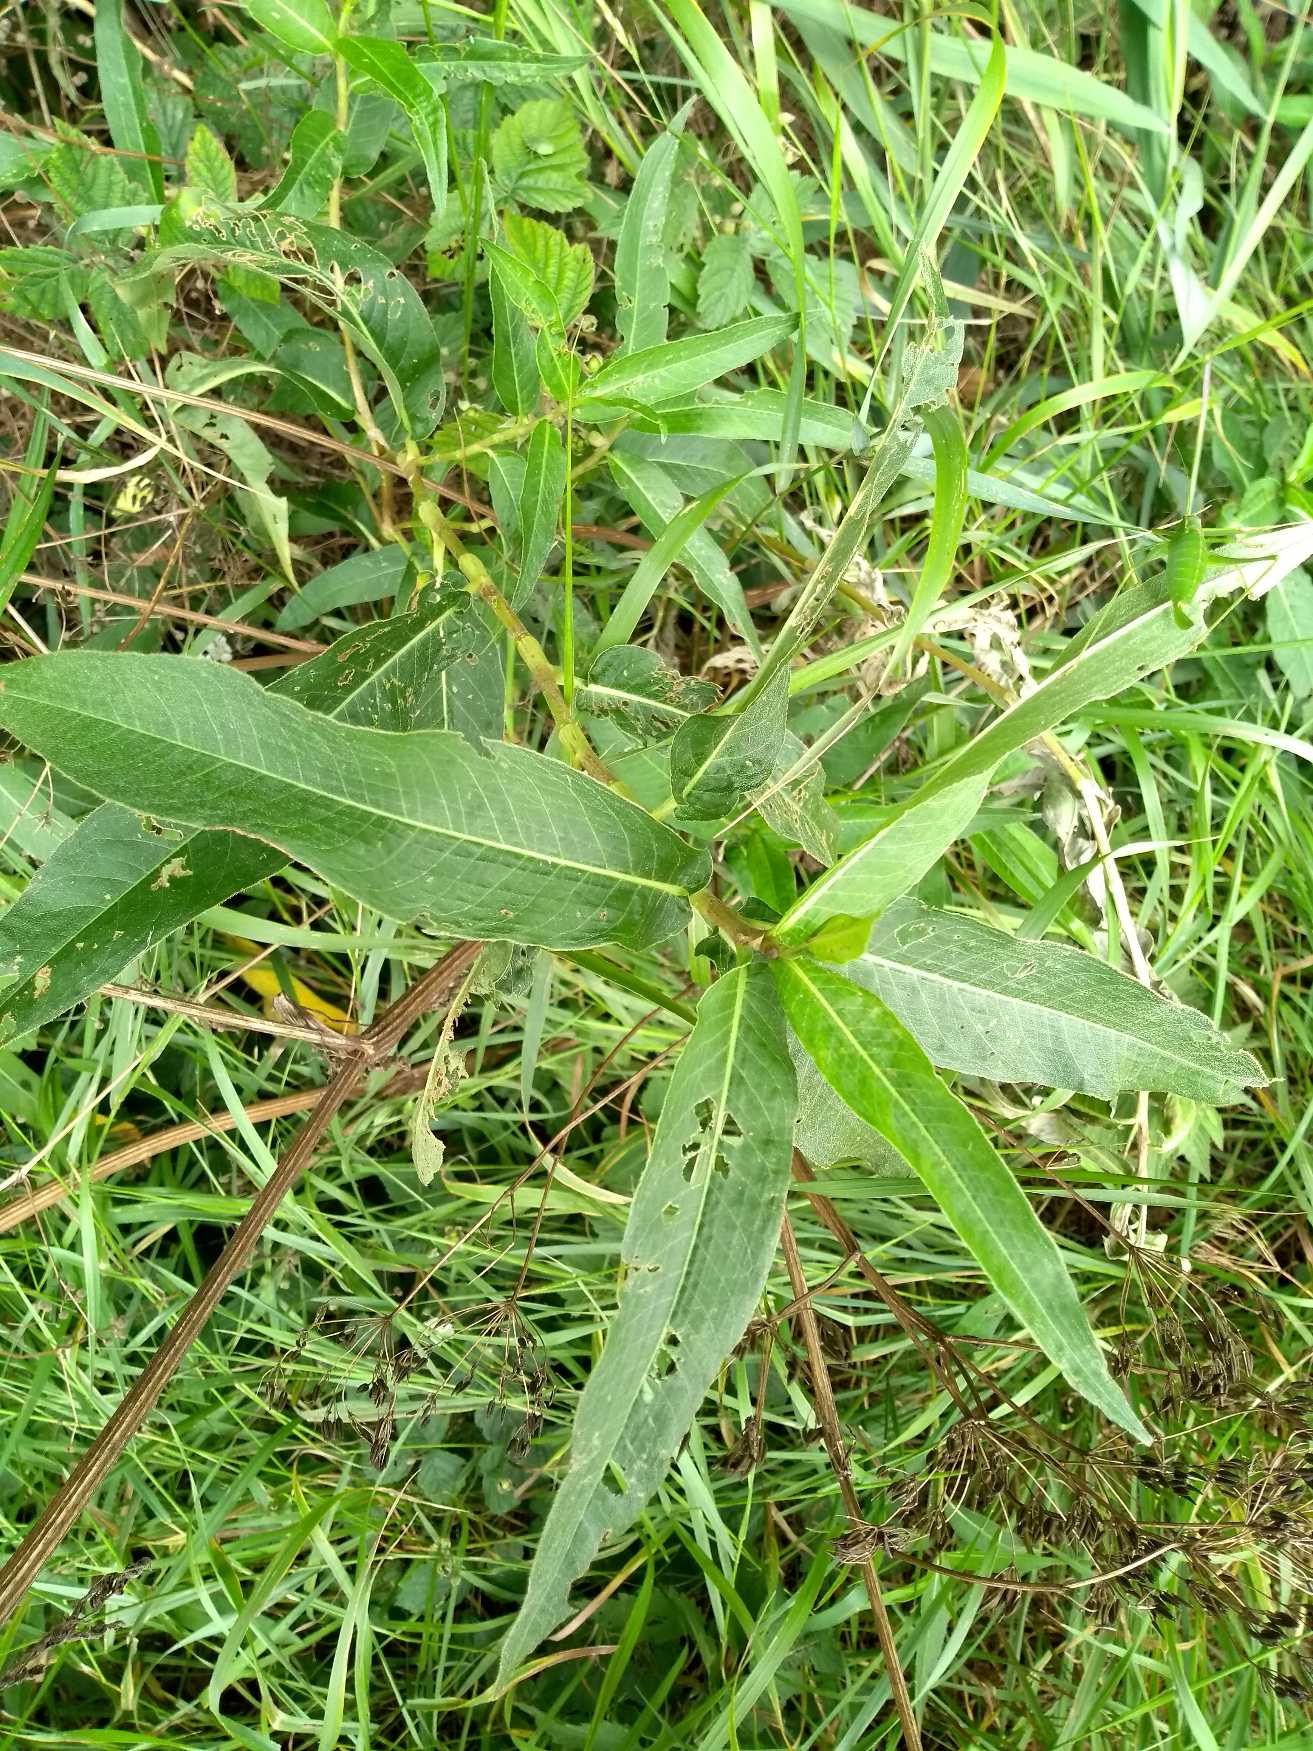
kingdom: Plantae
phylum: Tracheophyta
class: Magnoliopsida
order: Caryophyllales
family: Polygonaceae
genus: Persicaria
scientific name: Persicaria amphibia
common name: Vand-pileurt
